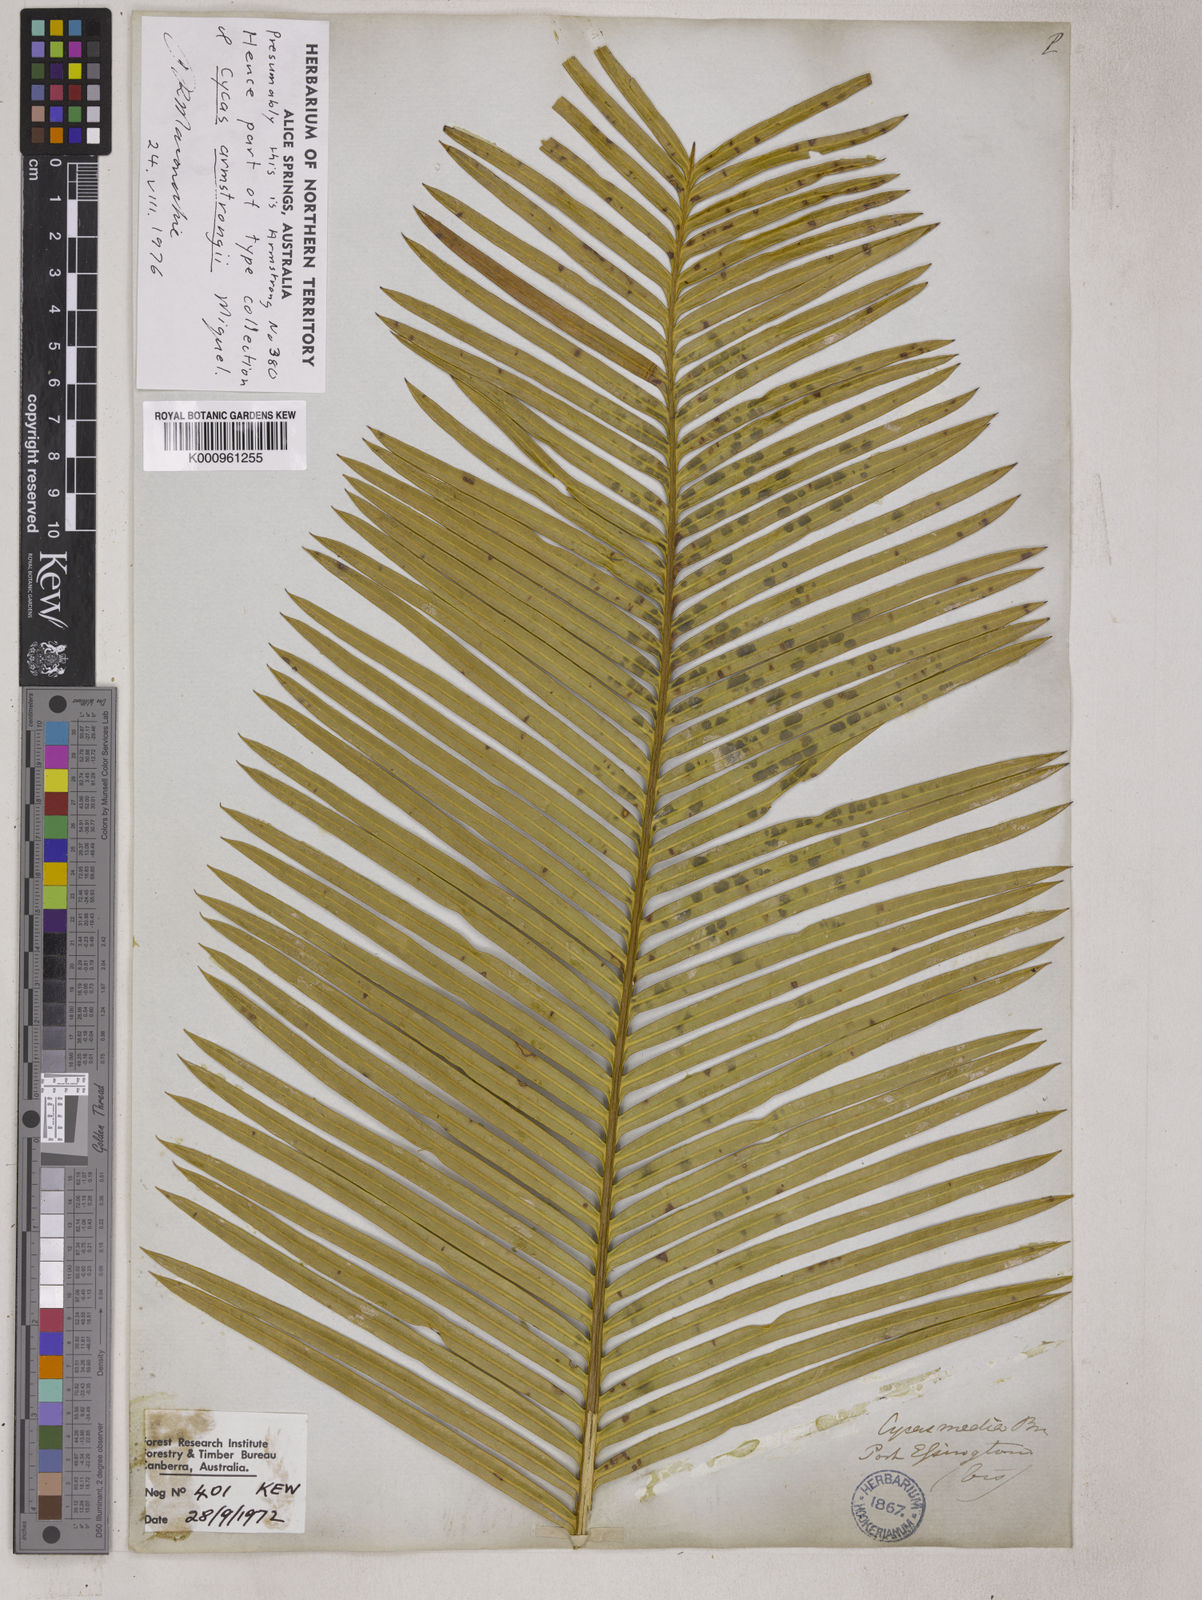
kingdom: Plantae
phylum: Tracheophyta
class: Cycadopsida
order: Cycadales
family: Cycadaceae
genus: Cycas
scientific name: Cycas armstrongii
